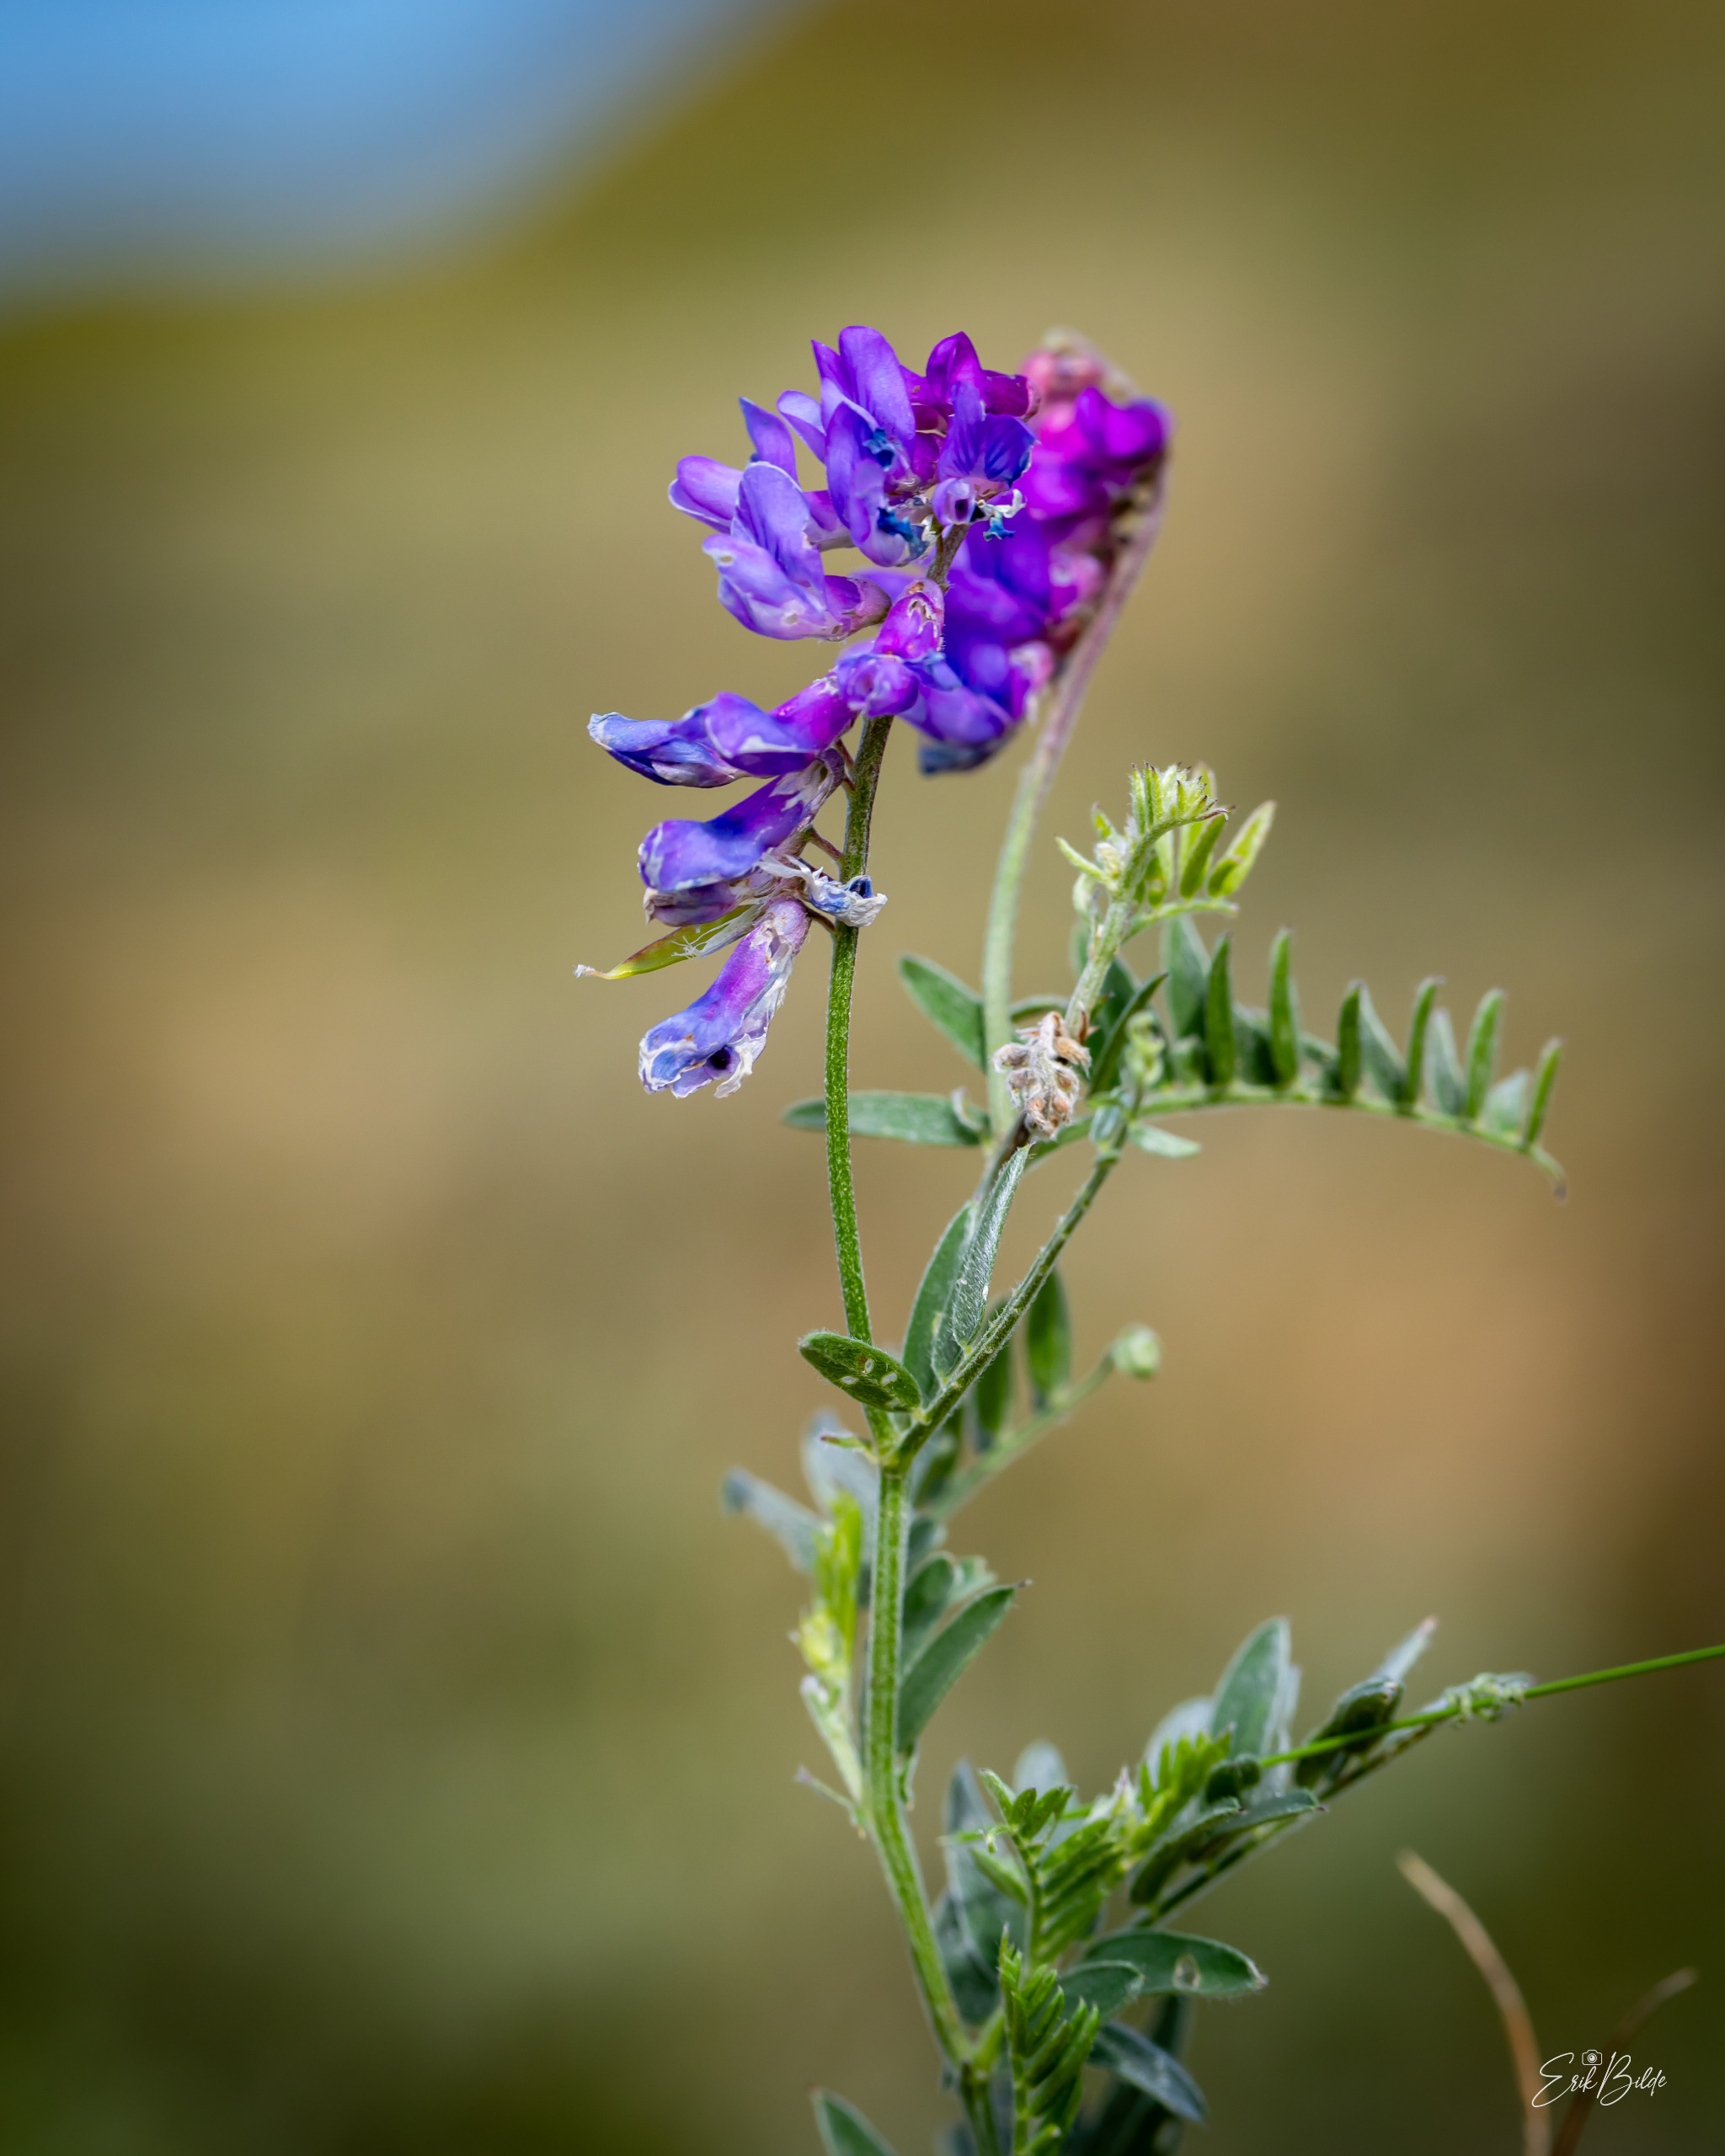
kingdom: Plantae
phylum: Tracheophyta
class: Magnoliopsida
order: Fabales
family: Fabaceae
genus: Vicia
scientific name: Vicia cracca
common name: Muse-vikke
